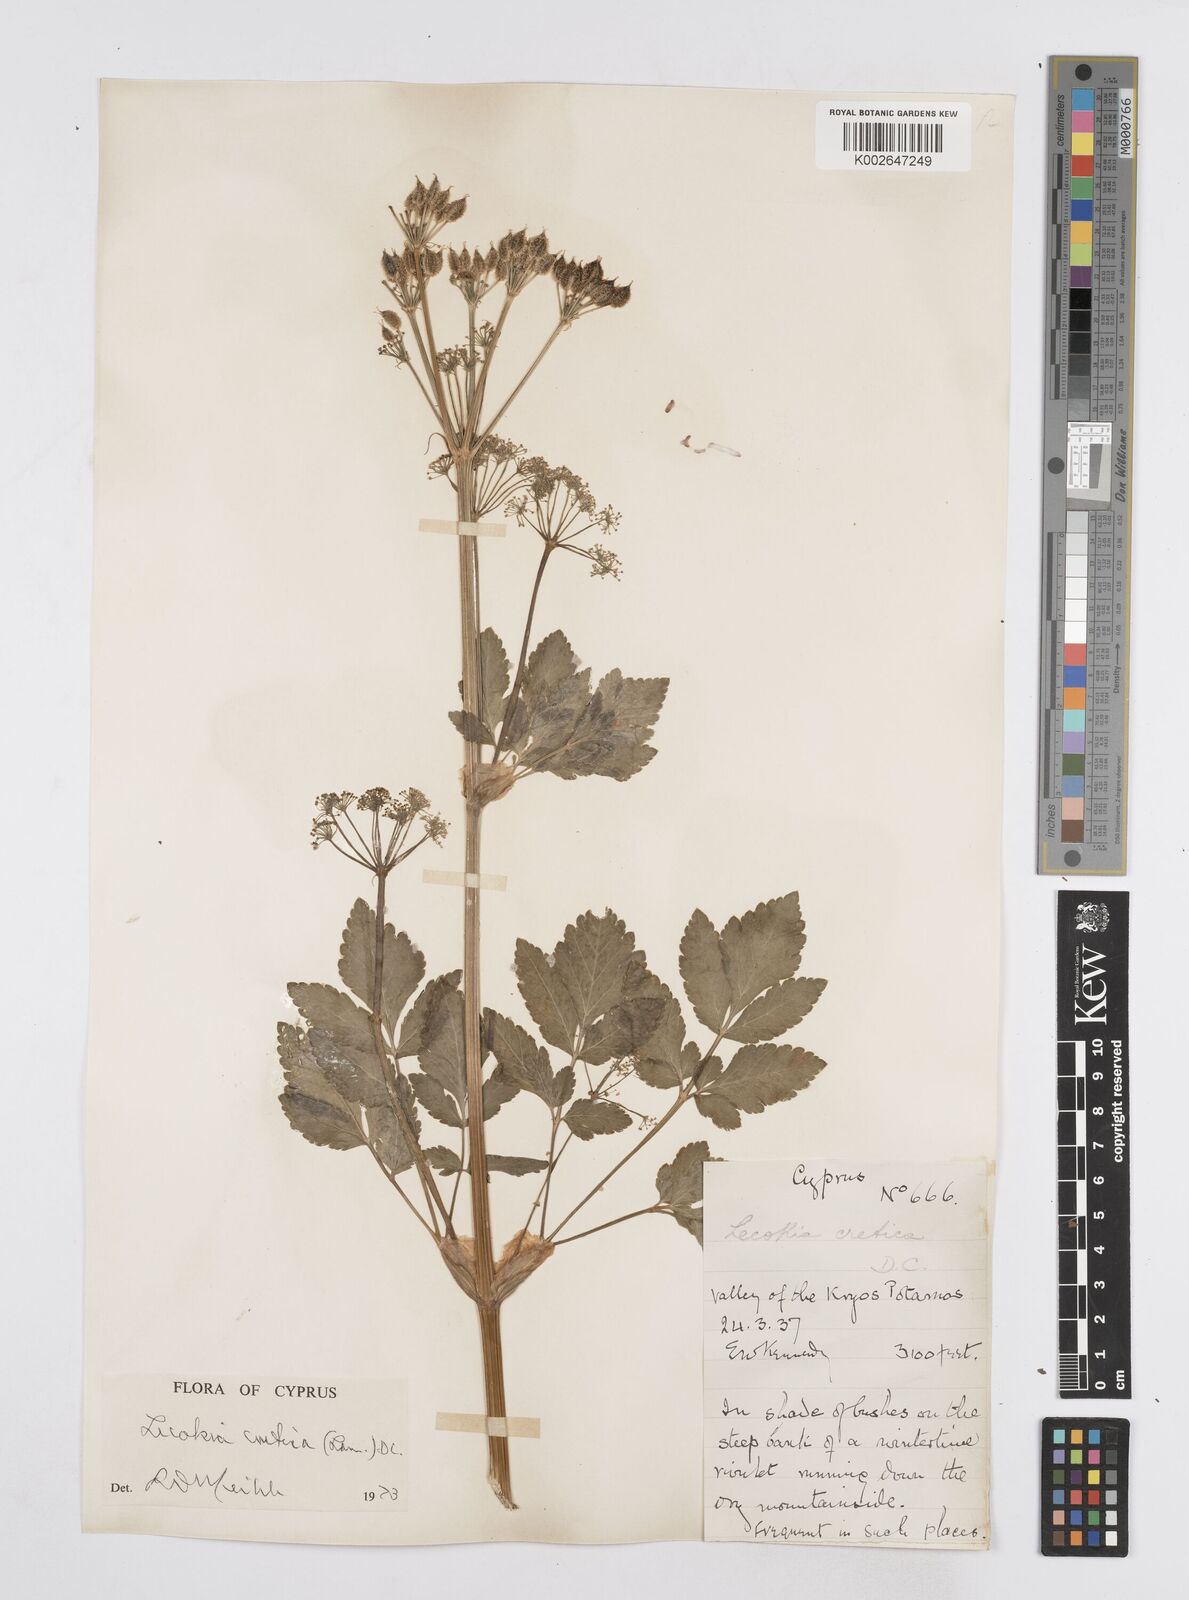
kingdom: Plantae
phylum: Tracheophyta
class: Magnoliopsida
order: Apiales
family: Apiaceae
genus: Lecokia
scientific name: Lecokia cretica
